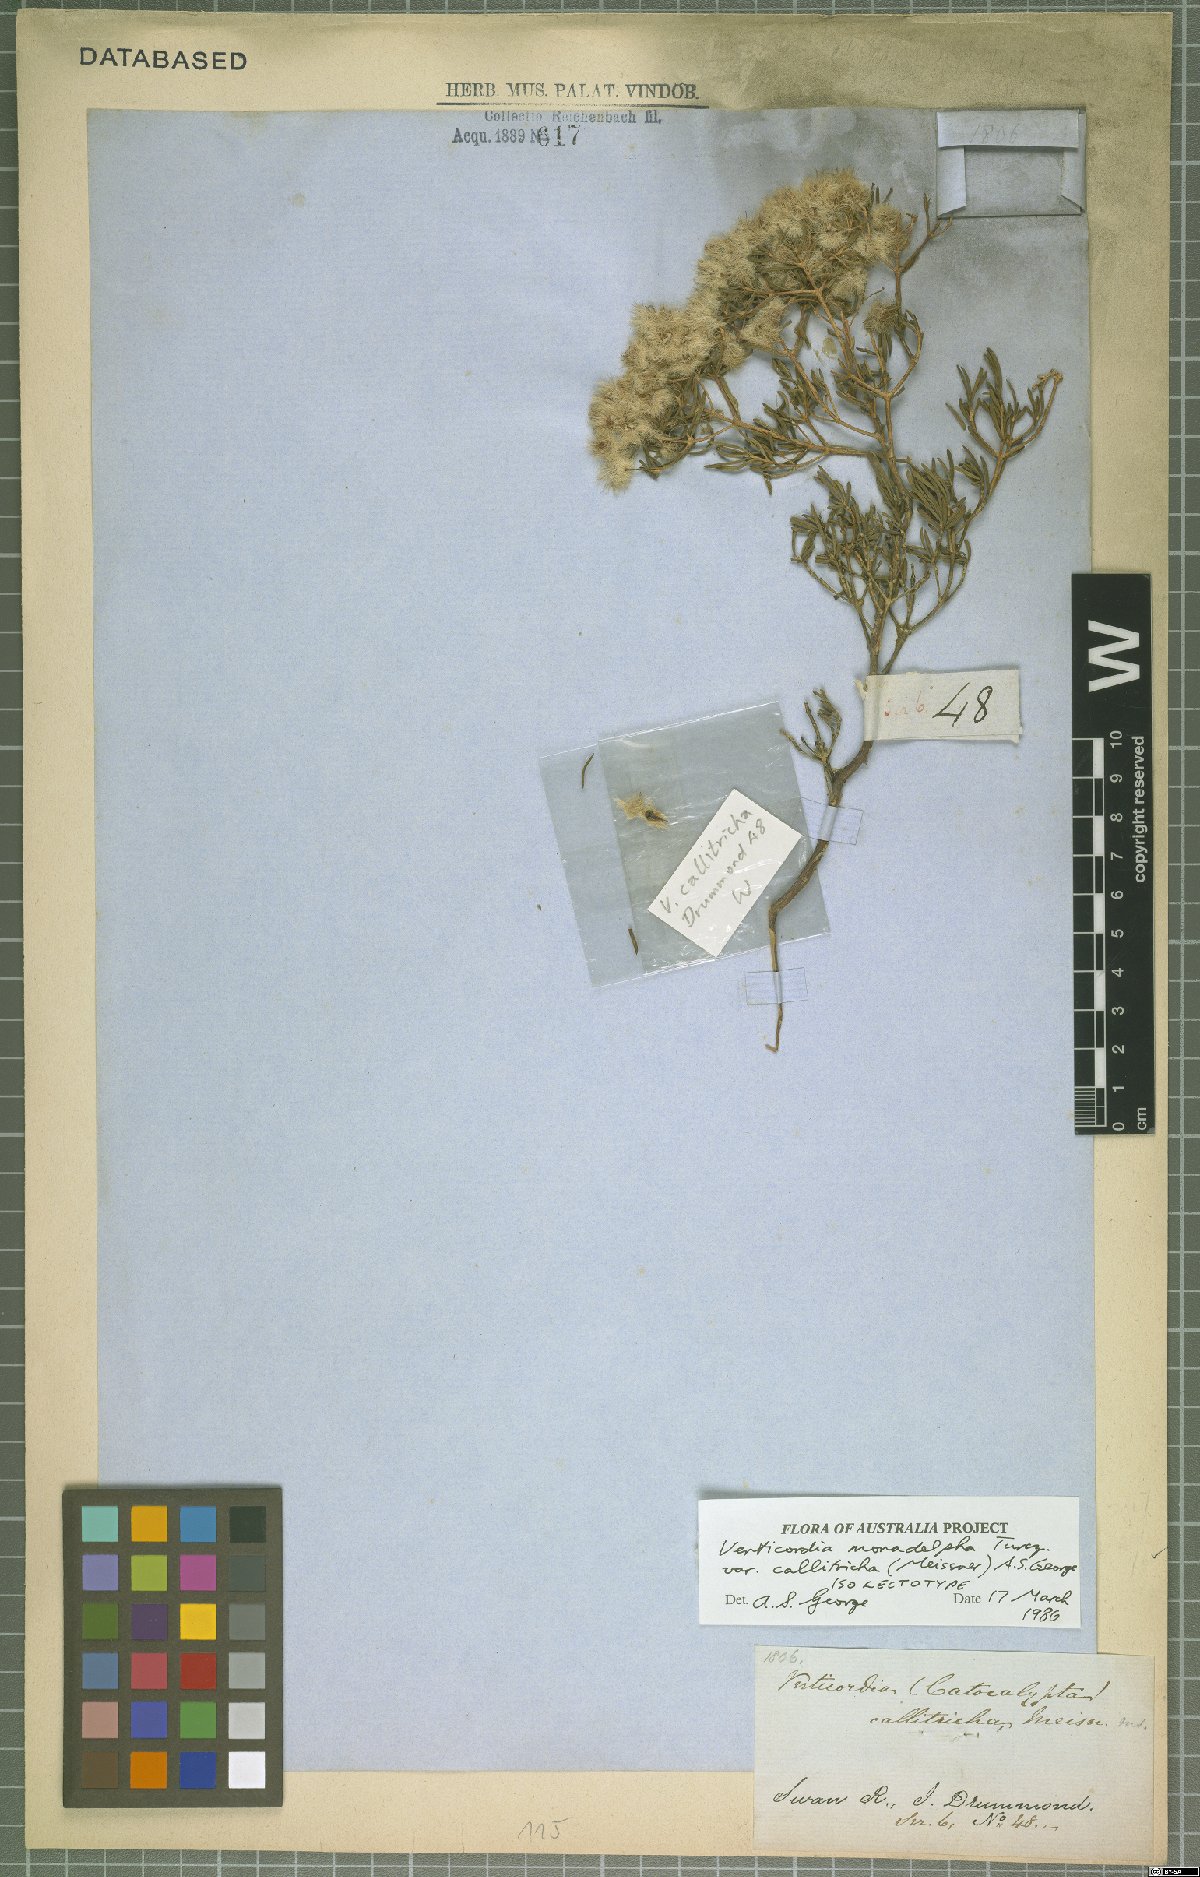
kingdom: Plantae
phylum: Tracheophyta
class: Magnoliopsida
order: Myrtales
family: Myrtaceae
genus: Verticordia
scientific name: Verticordia monadelpha
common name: Woolly feather-flower
